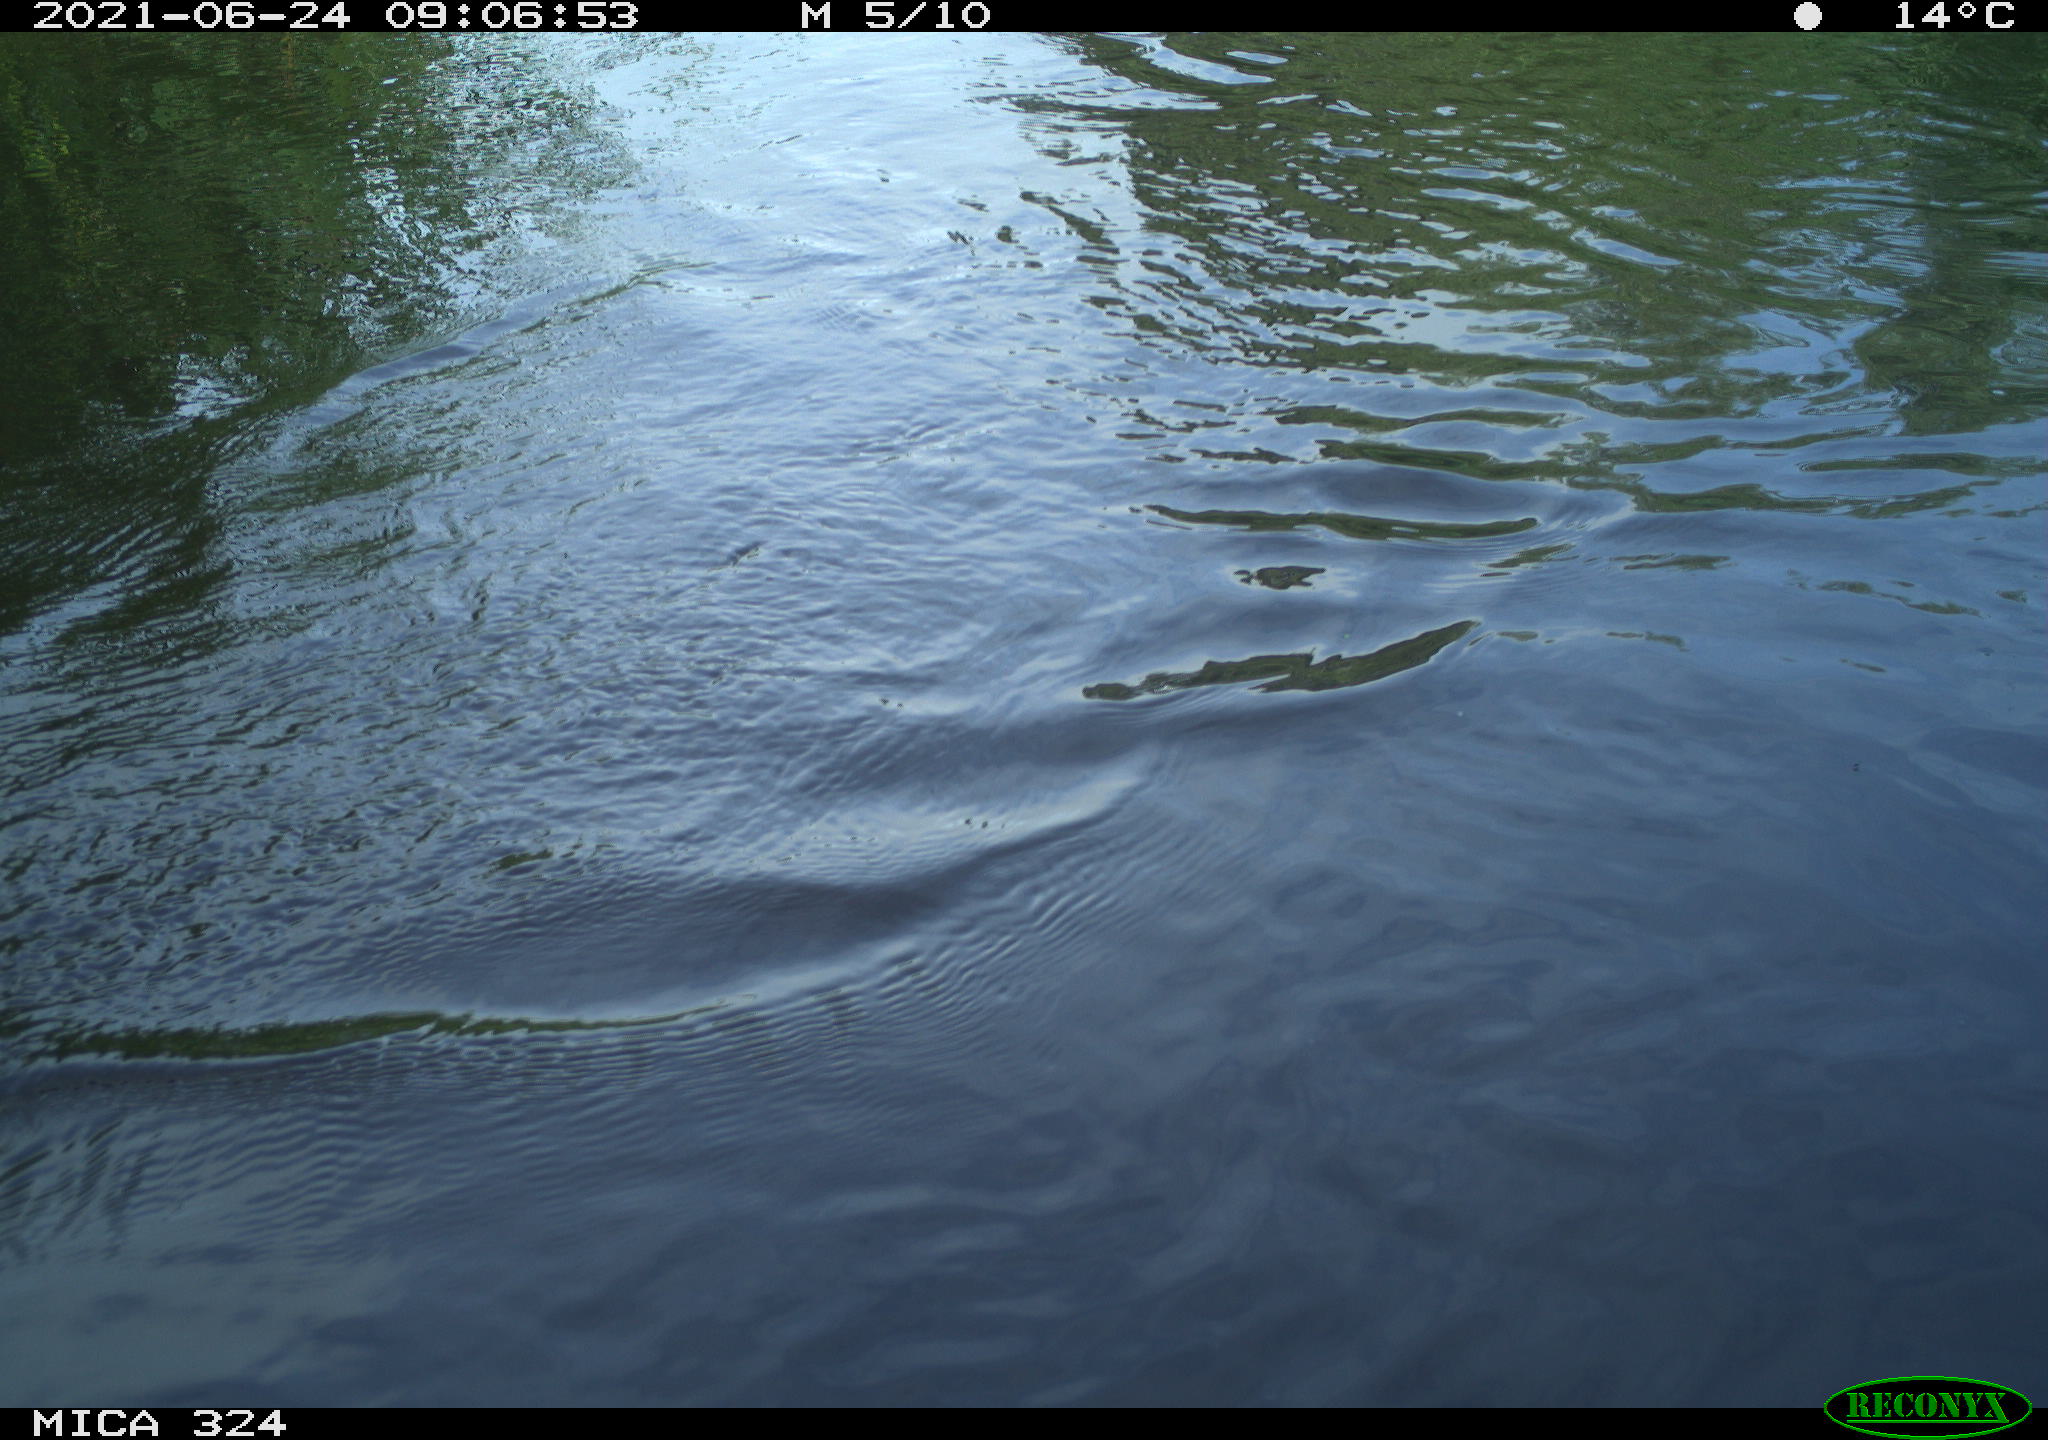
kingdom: Animalia
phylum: Chordata
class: Aves
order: Gruiformes
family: Rallidae
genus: Gallinula
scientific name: Gallinula chloropus
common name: Common moorhen
